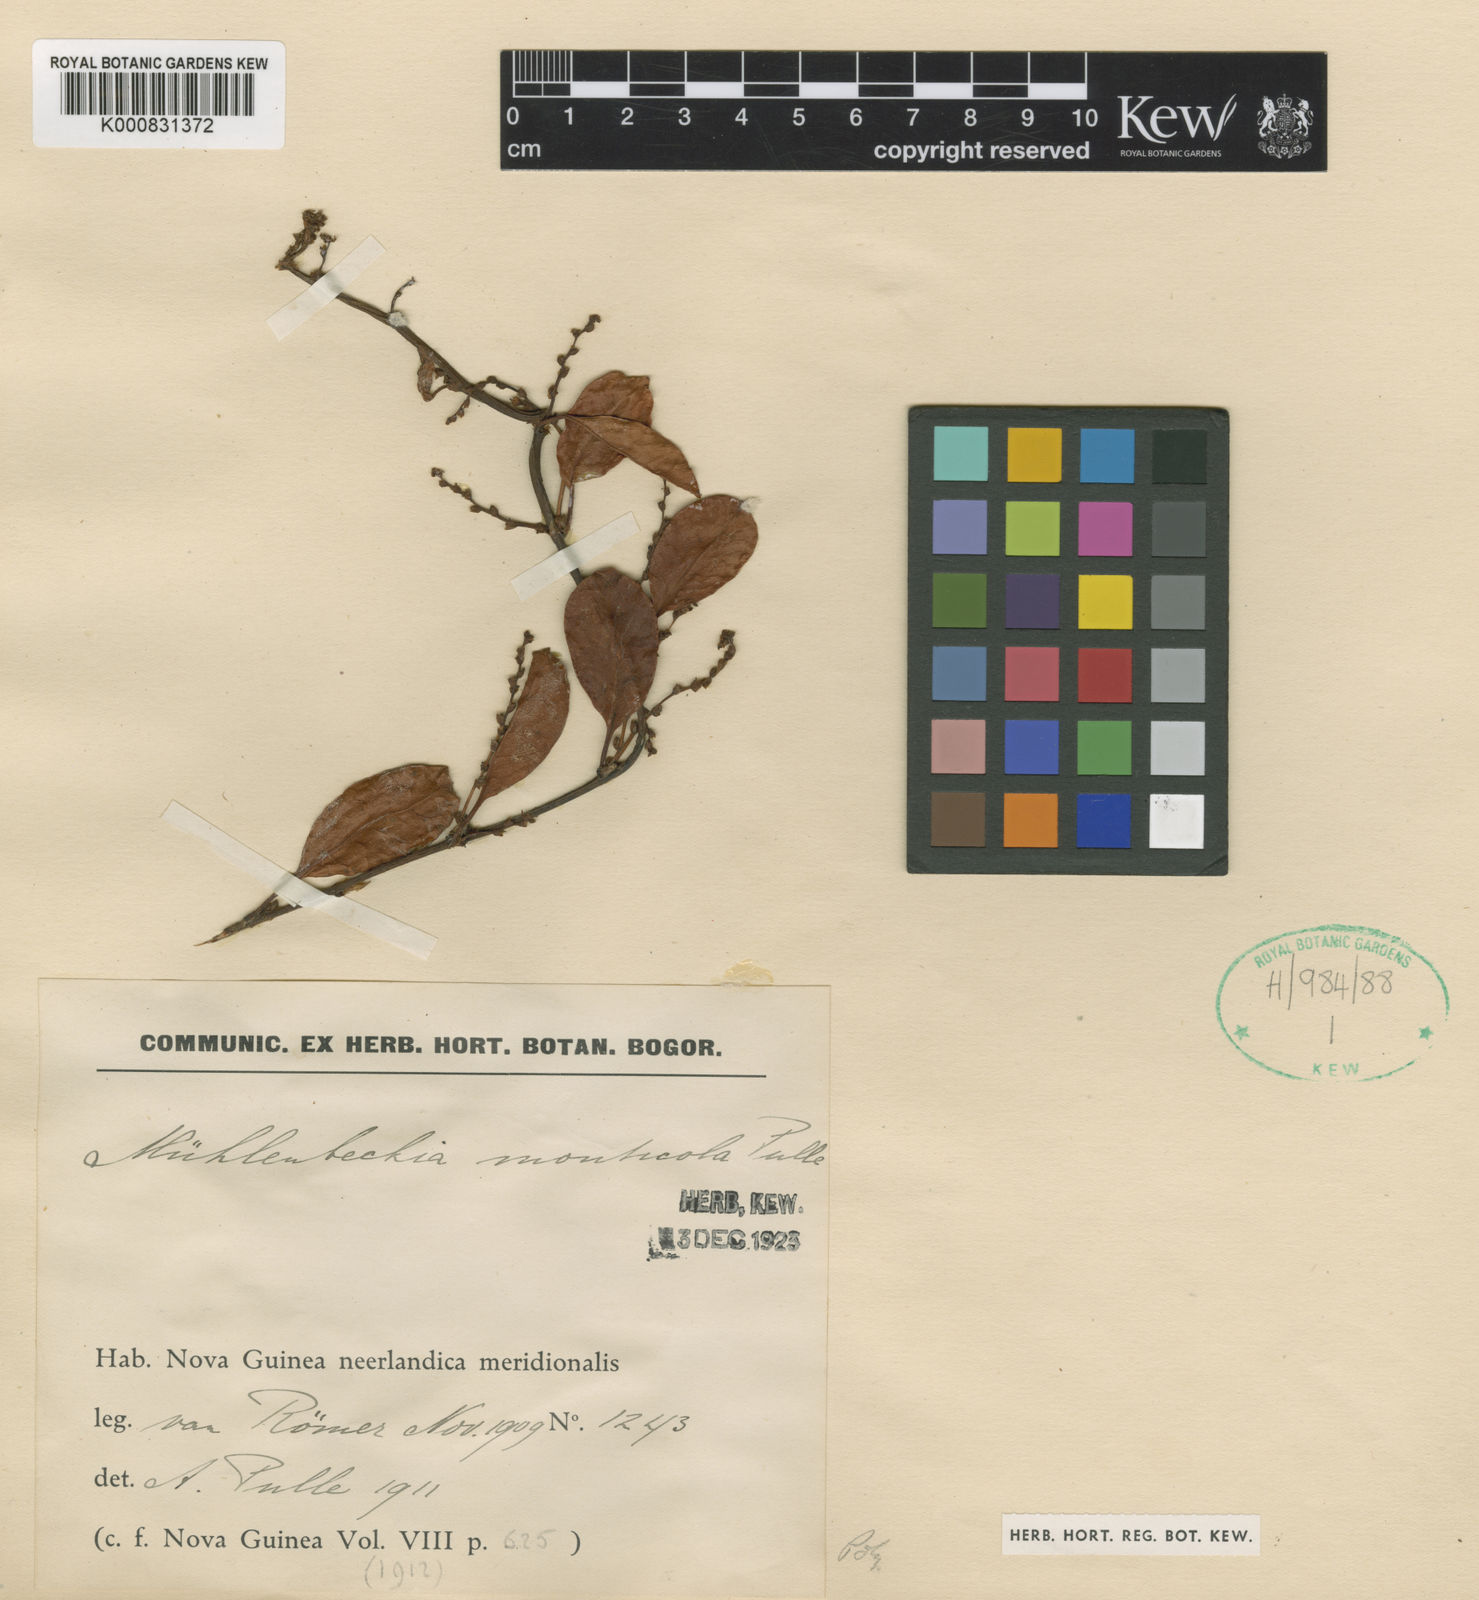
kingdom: Plantae
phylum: Tracheophyta
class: Magnoliopsida
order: Caryophyllales
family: Polygonaceae
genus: Muehlenbeckia
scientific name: Muehlenbeckia monticola
